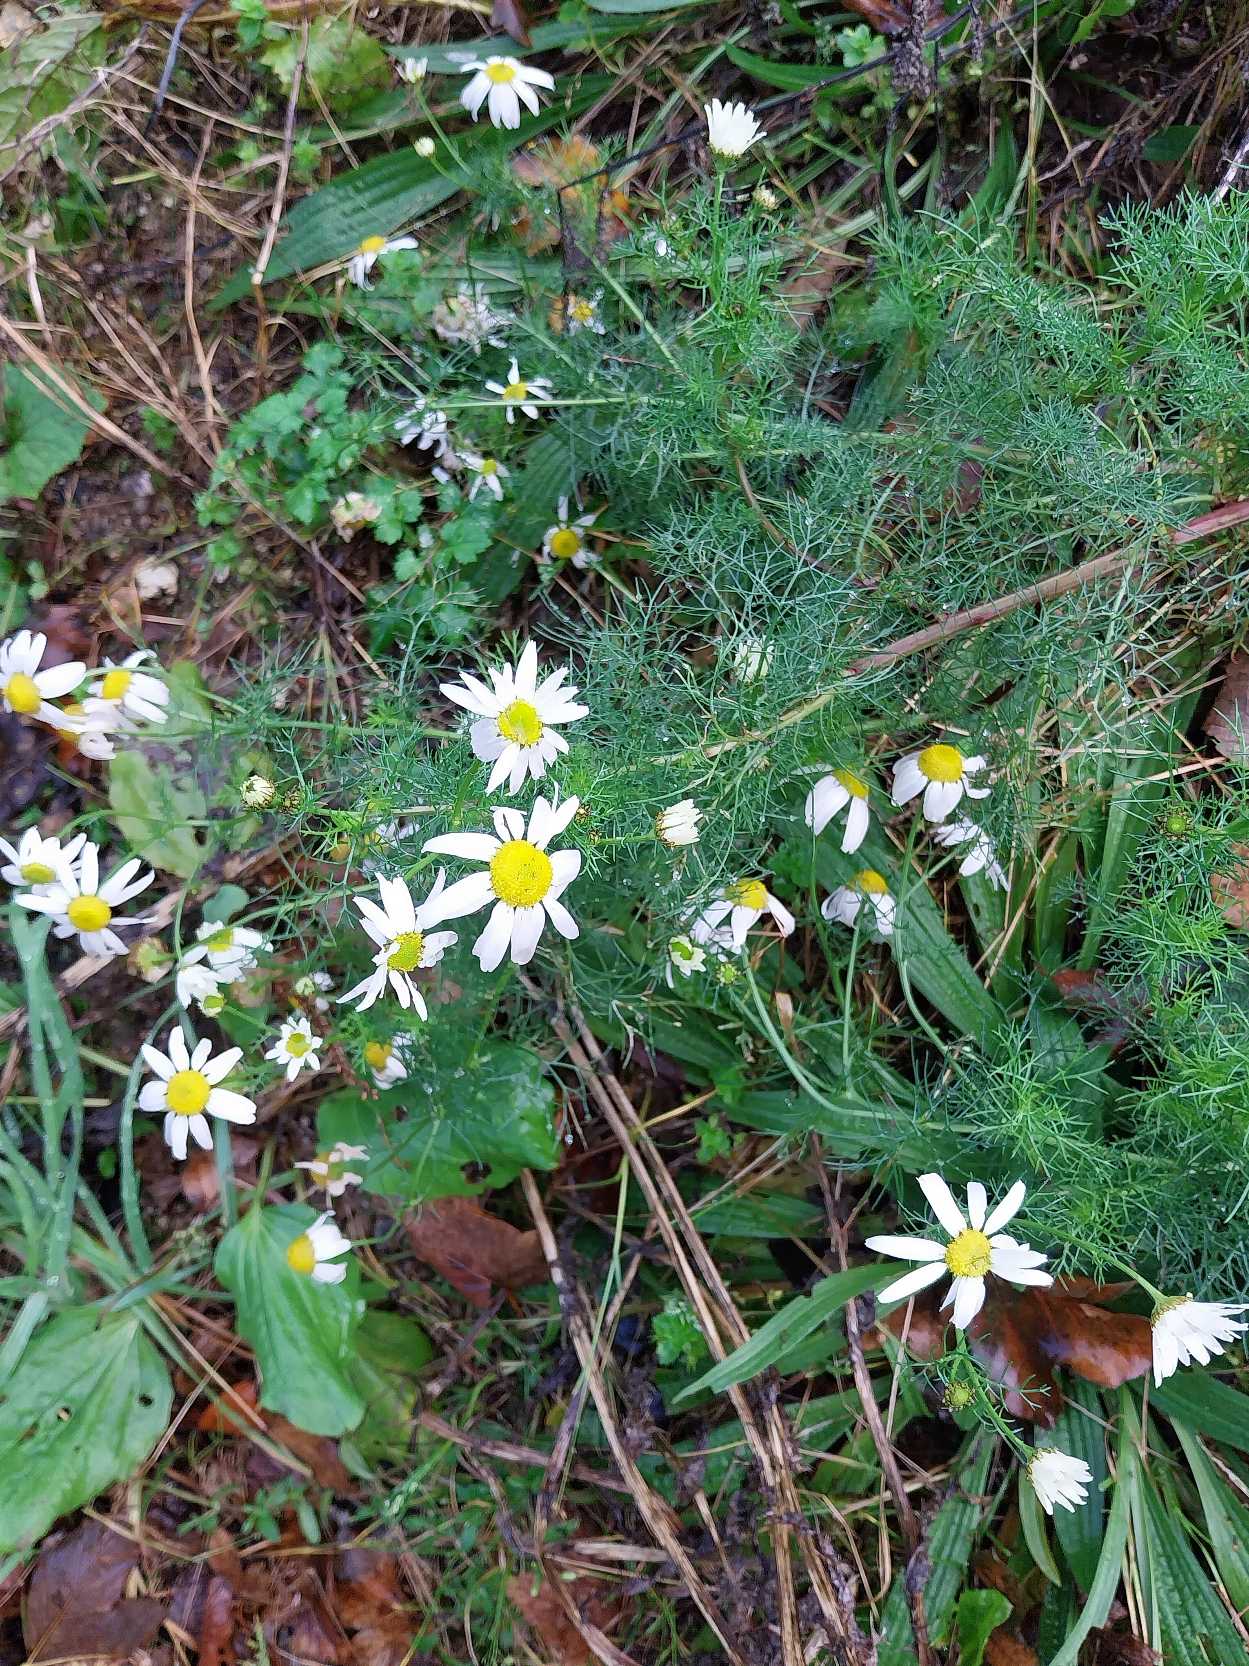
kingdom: Plantae
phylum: Tracheophyta
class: Magnoliopsida
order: Asterales
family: Asteraceae
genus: Tripleurospermum
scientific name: Tripleurospermum inodorum
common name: Lugtløs kamille
